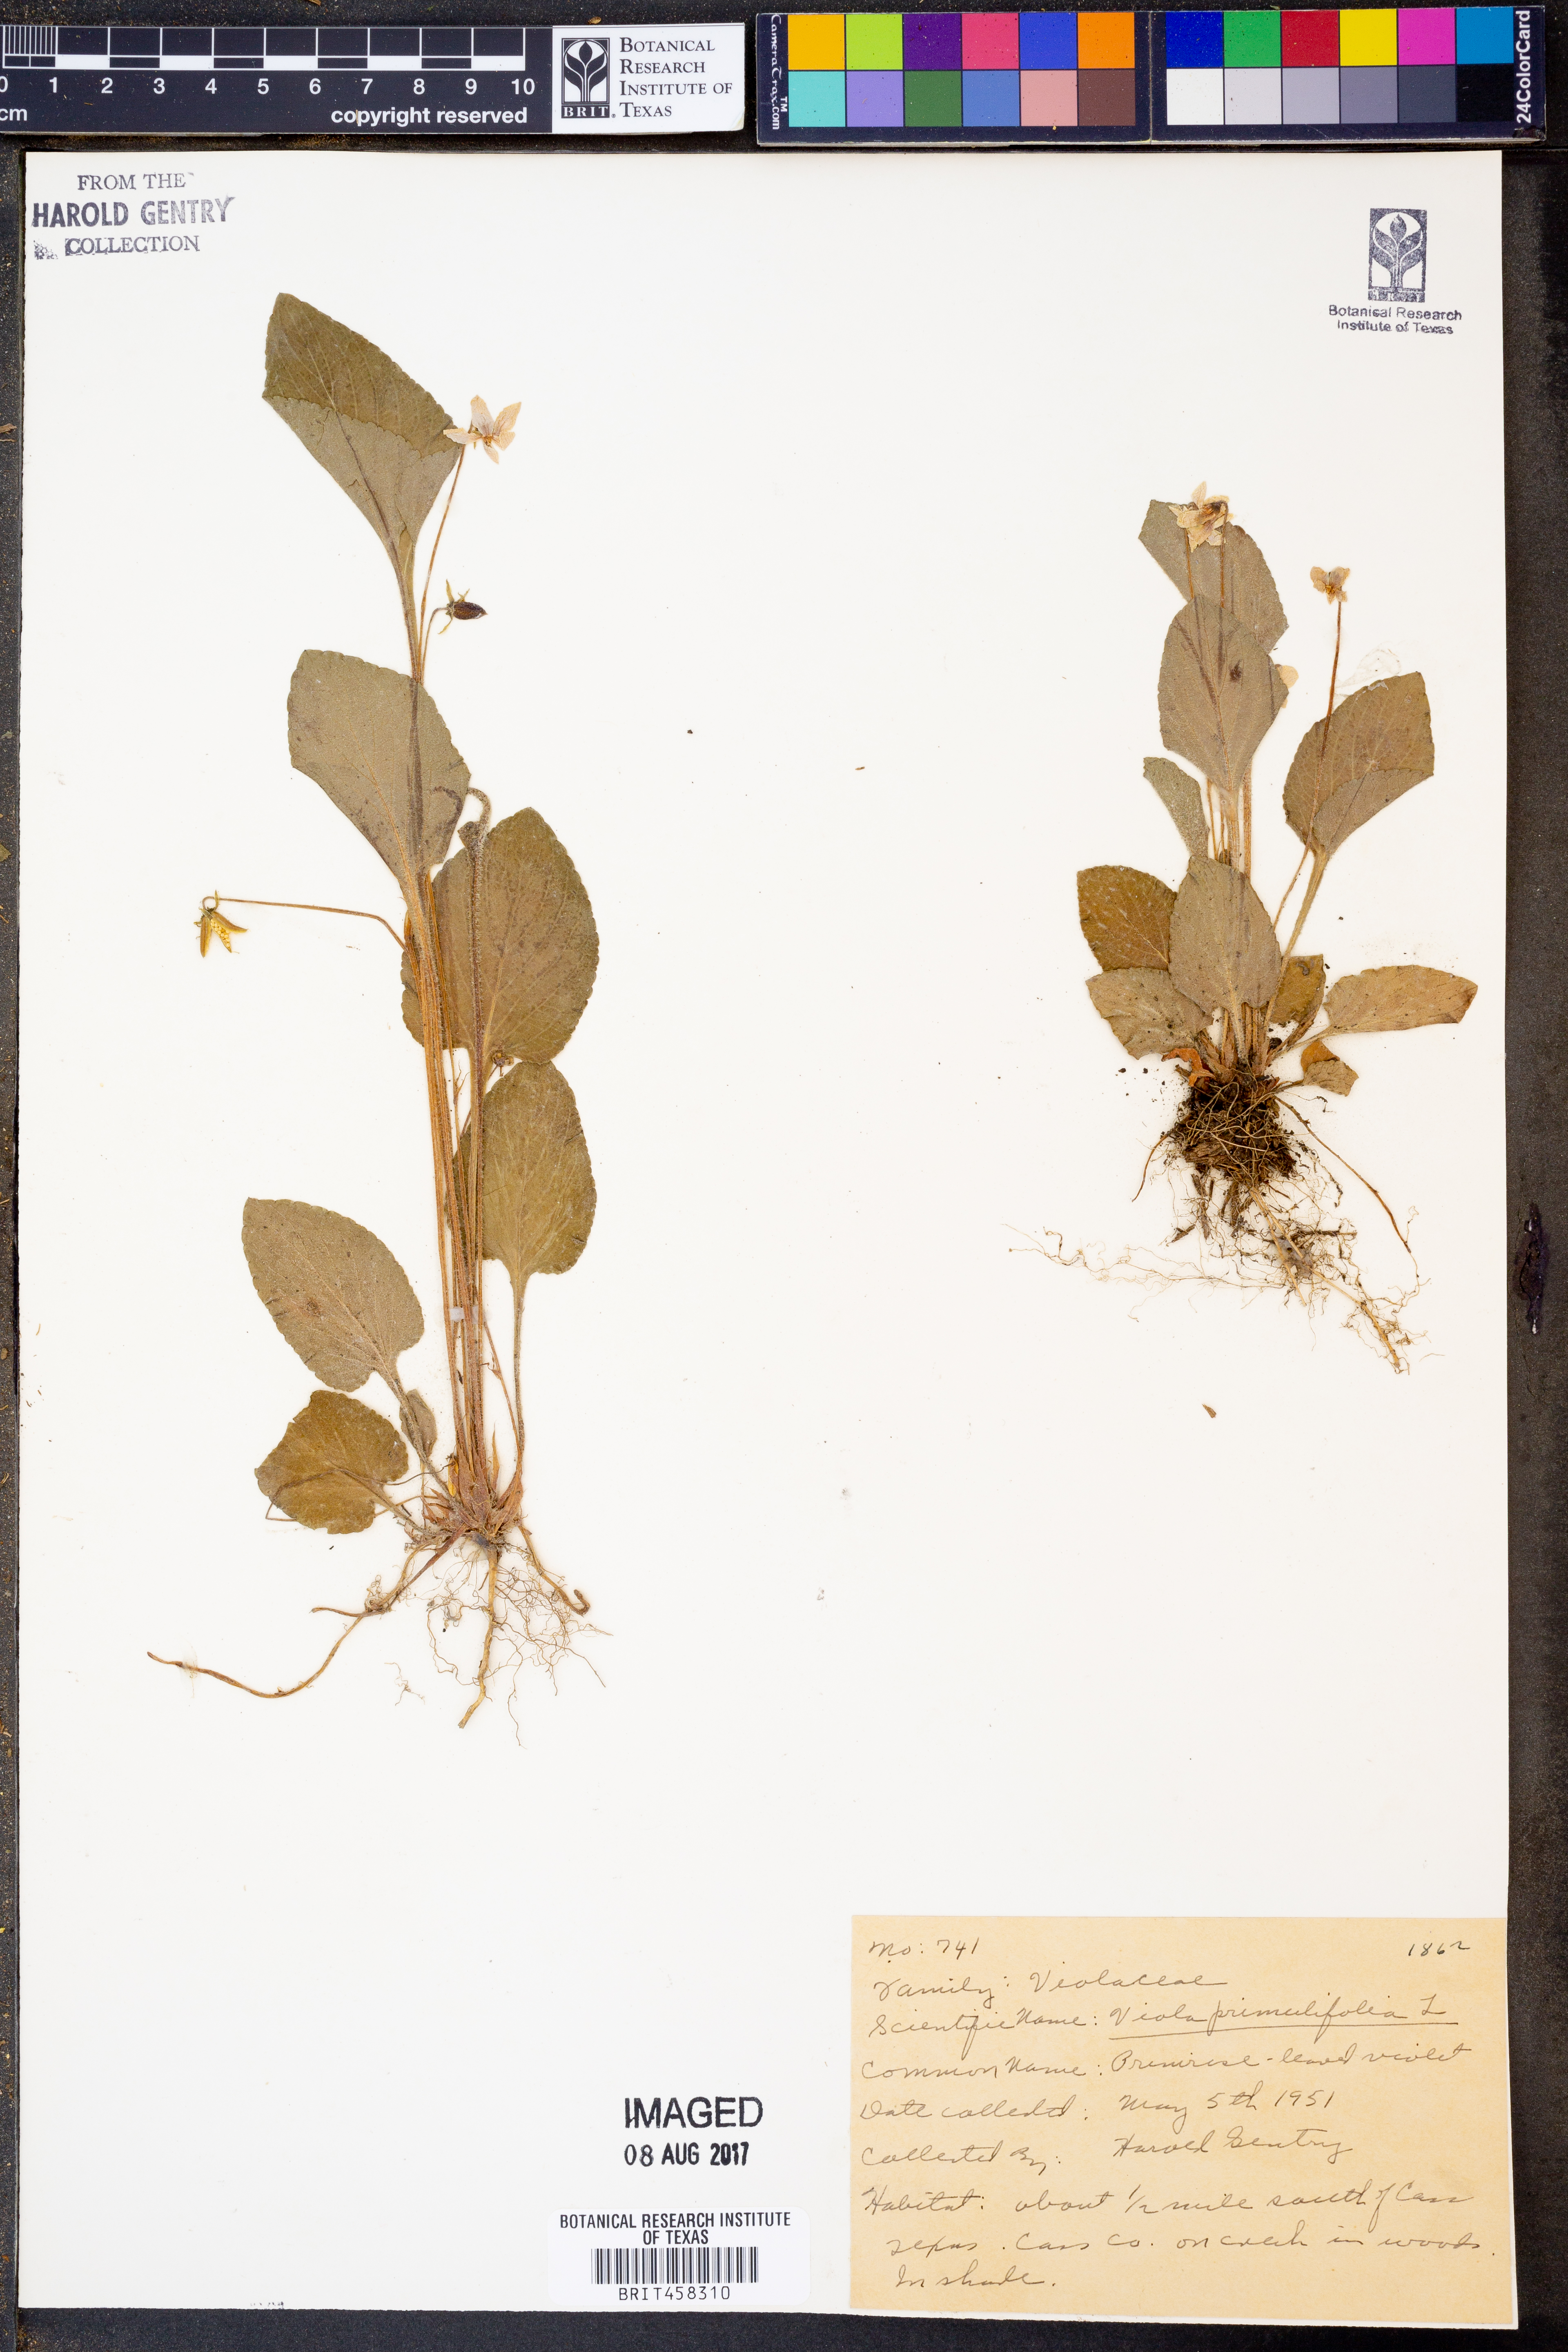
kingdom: Plantae
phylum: Tracheophyta
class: Magnoliopsida
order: Malpighiales
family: Violaceae
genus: Viola
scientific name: Viola primulifolia
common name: Primrose-leaf violet
